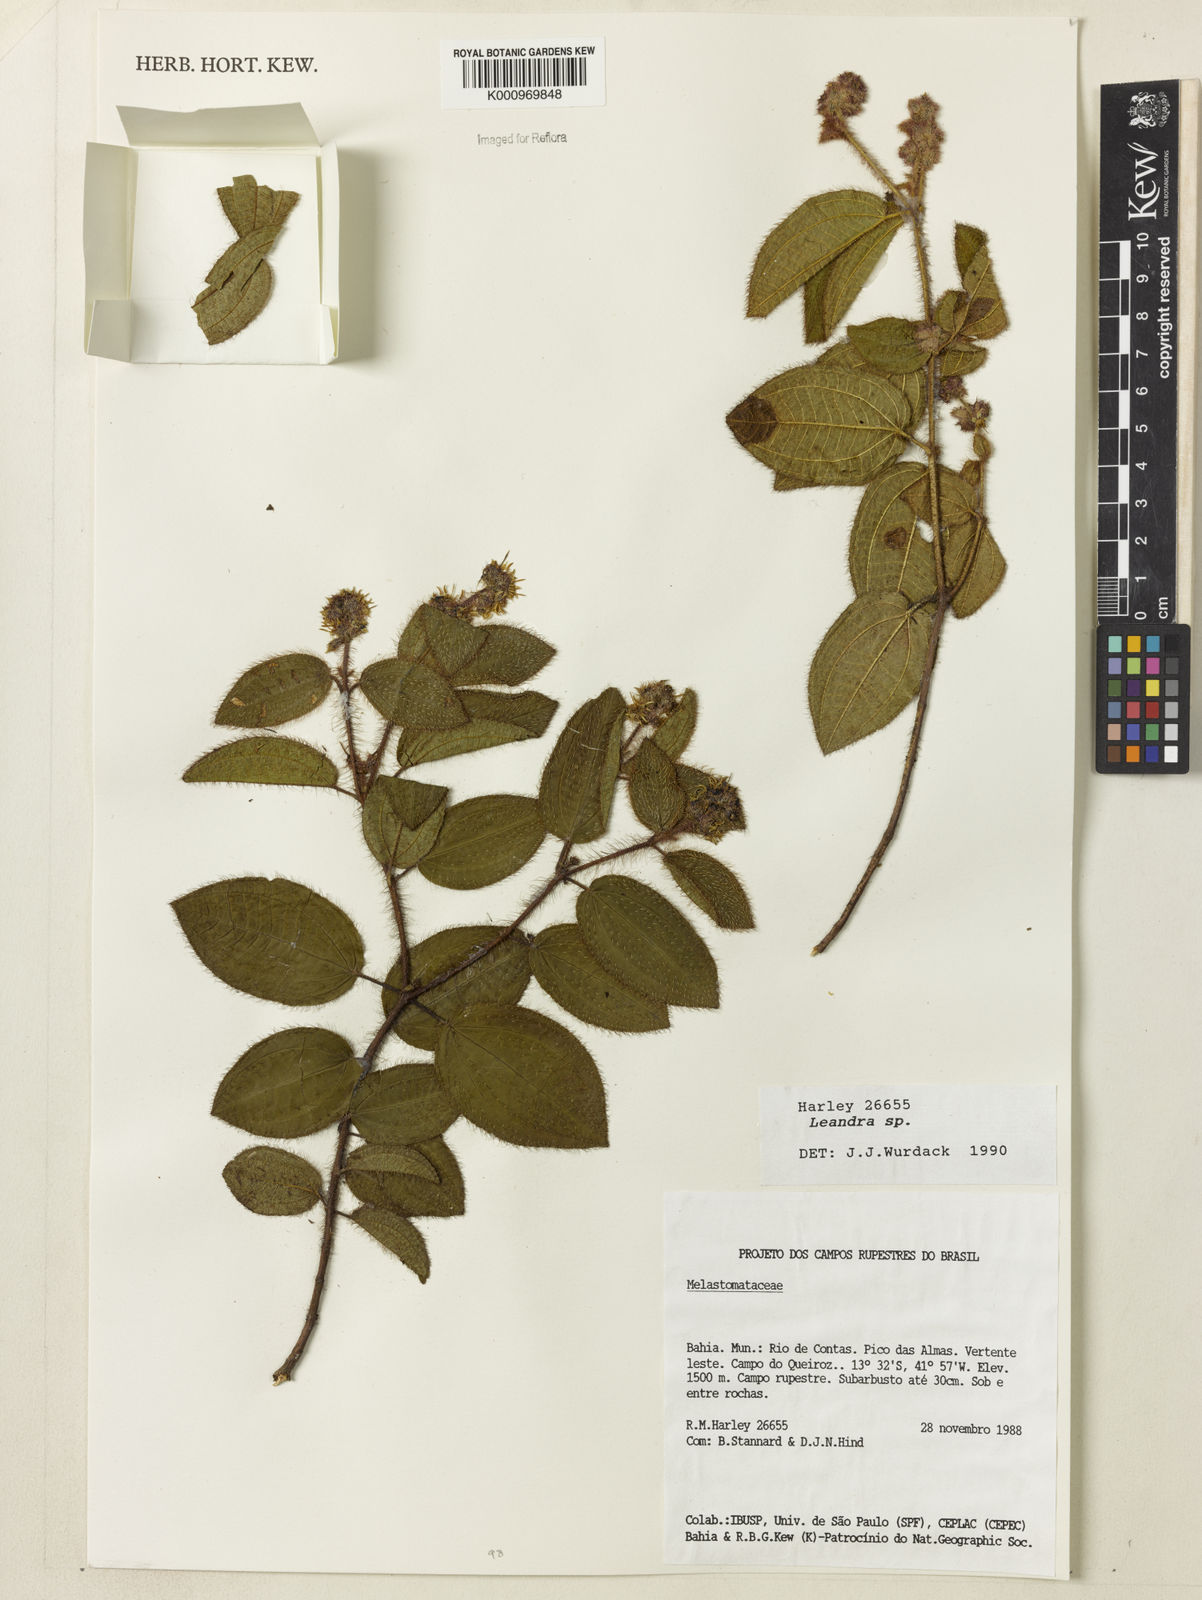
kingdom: Plantae
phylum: Tracheophyta
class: Magnoliopsida
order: Myrtales
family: Melastomataceae
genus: Miconia
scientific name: Miconia
